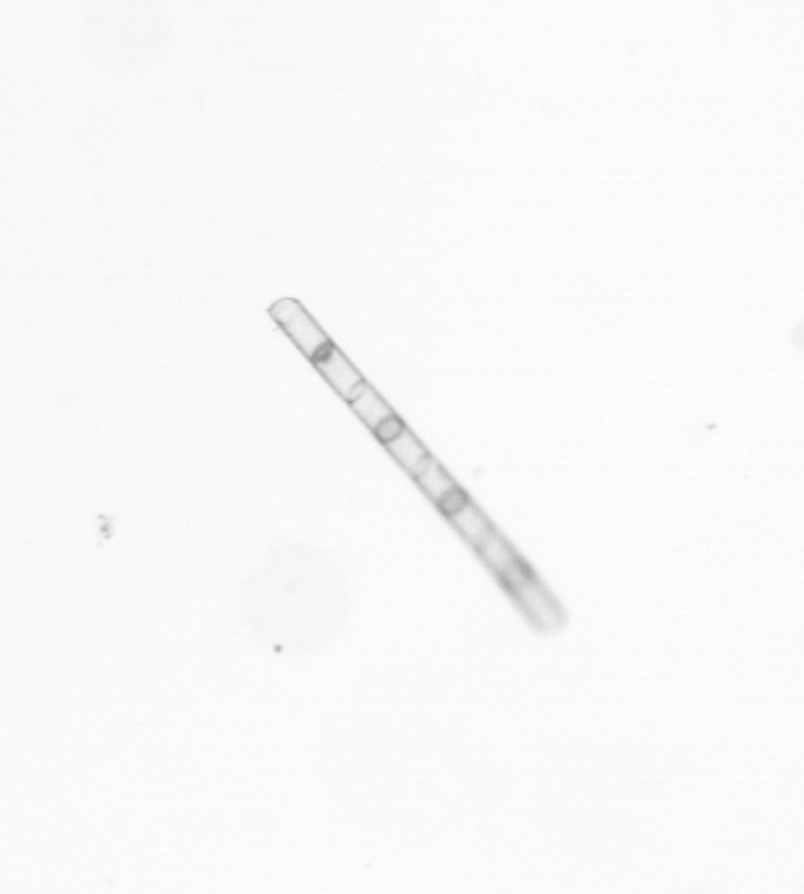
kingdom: Chromista
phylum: Ochrophyta
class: Bacillariophyceae
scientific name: Bacillariophyceae
